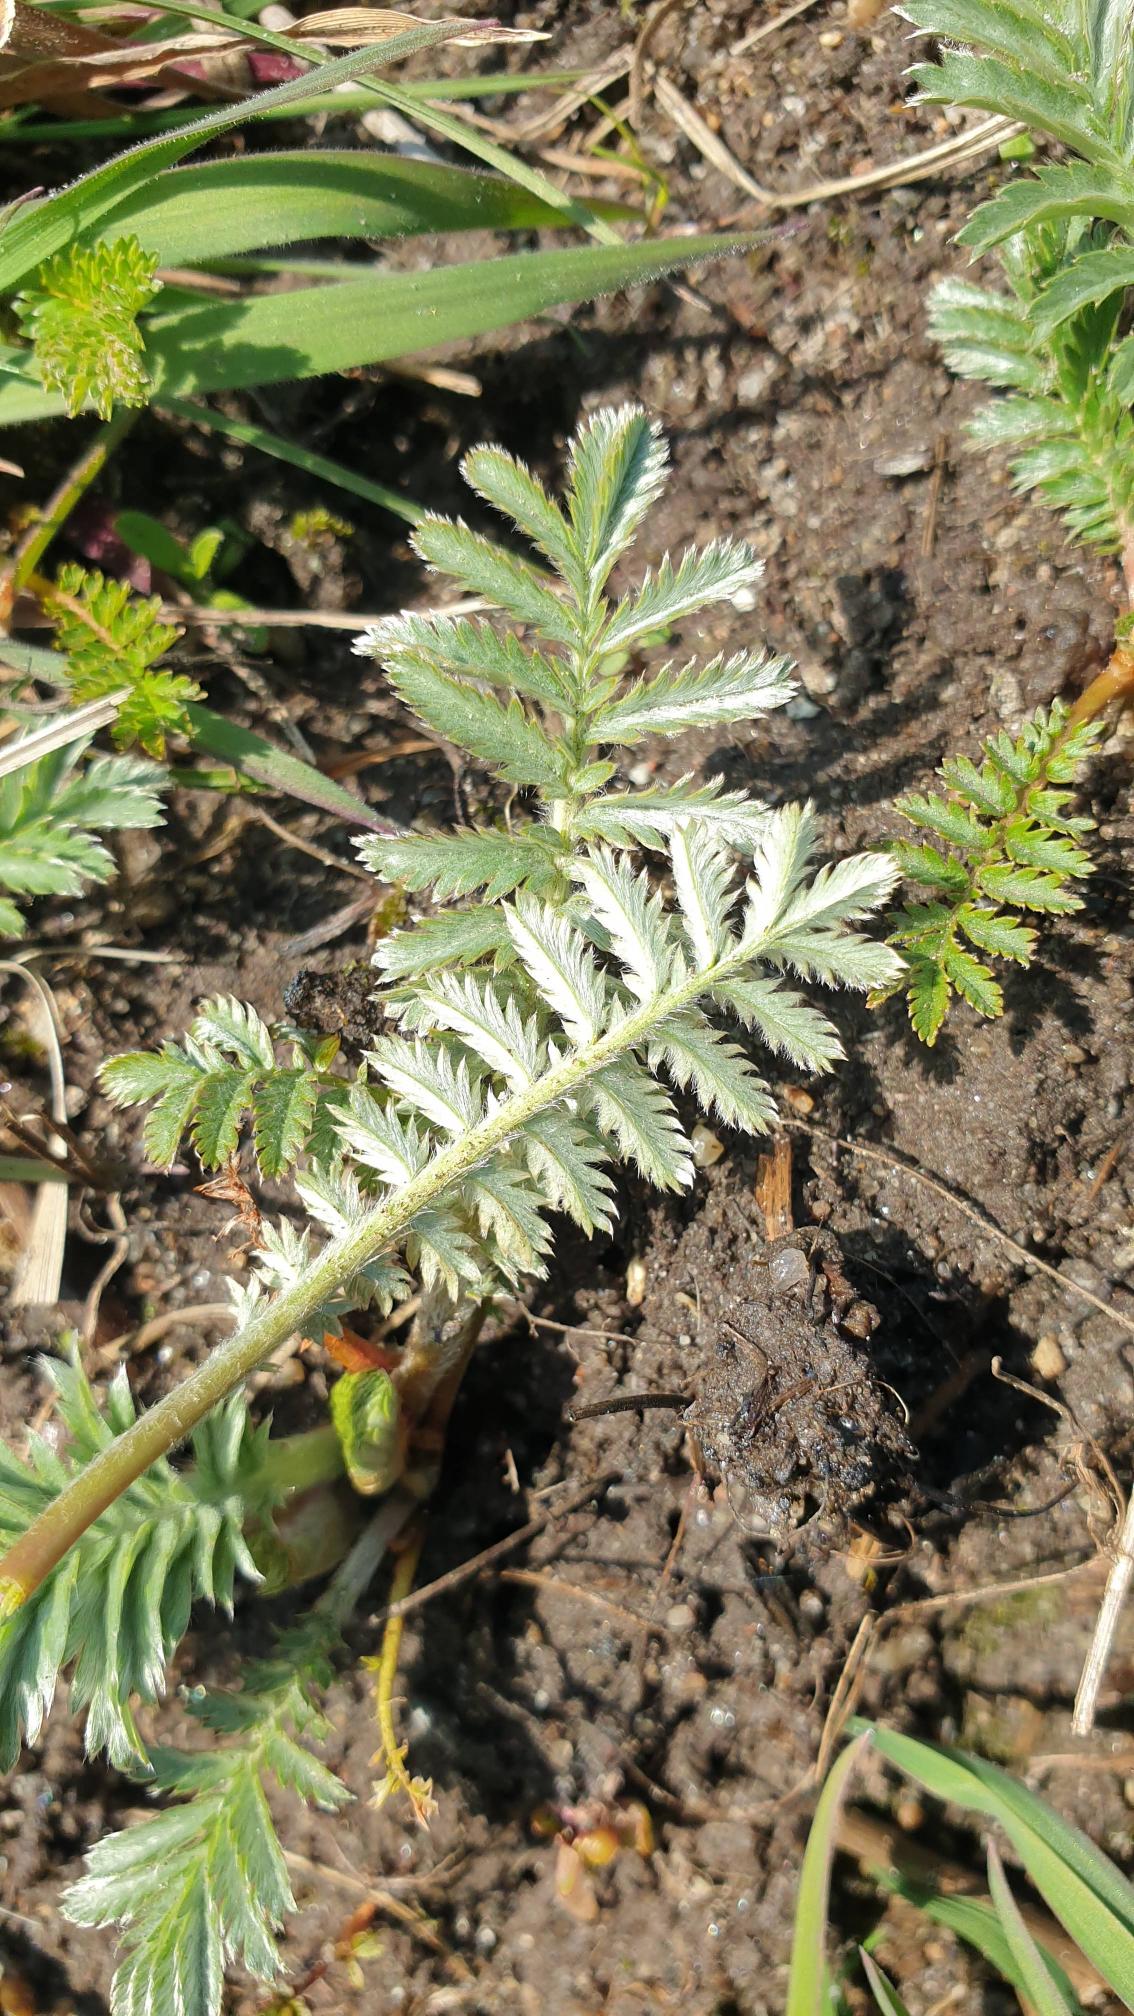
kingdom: Plantae
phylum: Tracheophyta
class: Magnoliopsida
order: Rosales
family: Rosaceae
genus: Argentina
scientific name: Argentina anserina
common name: Gåsepotentil
